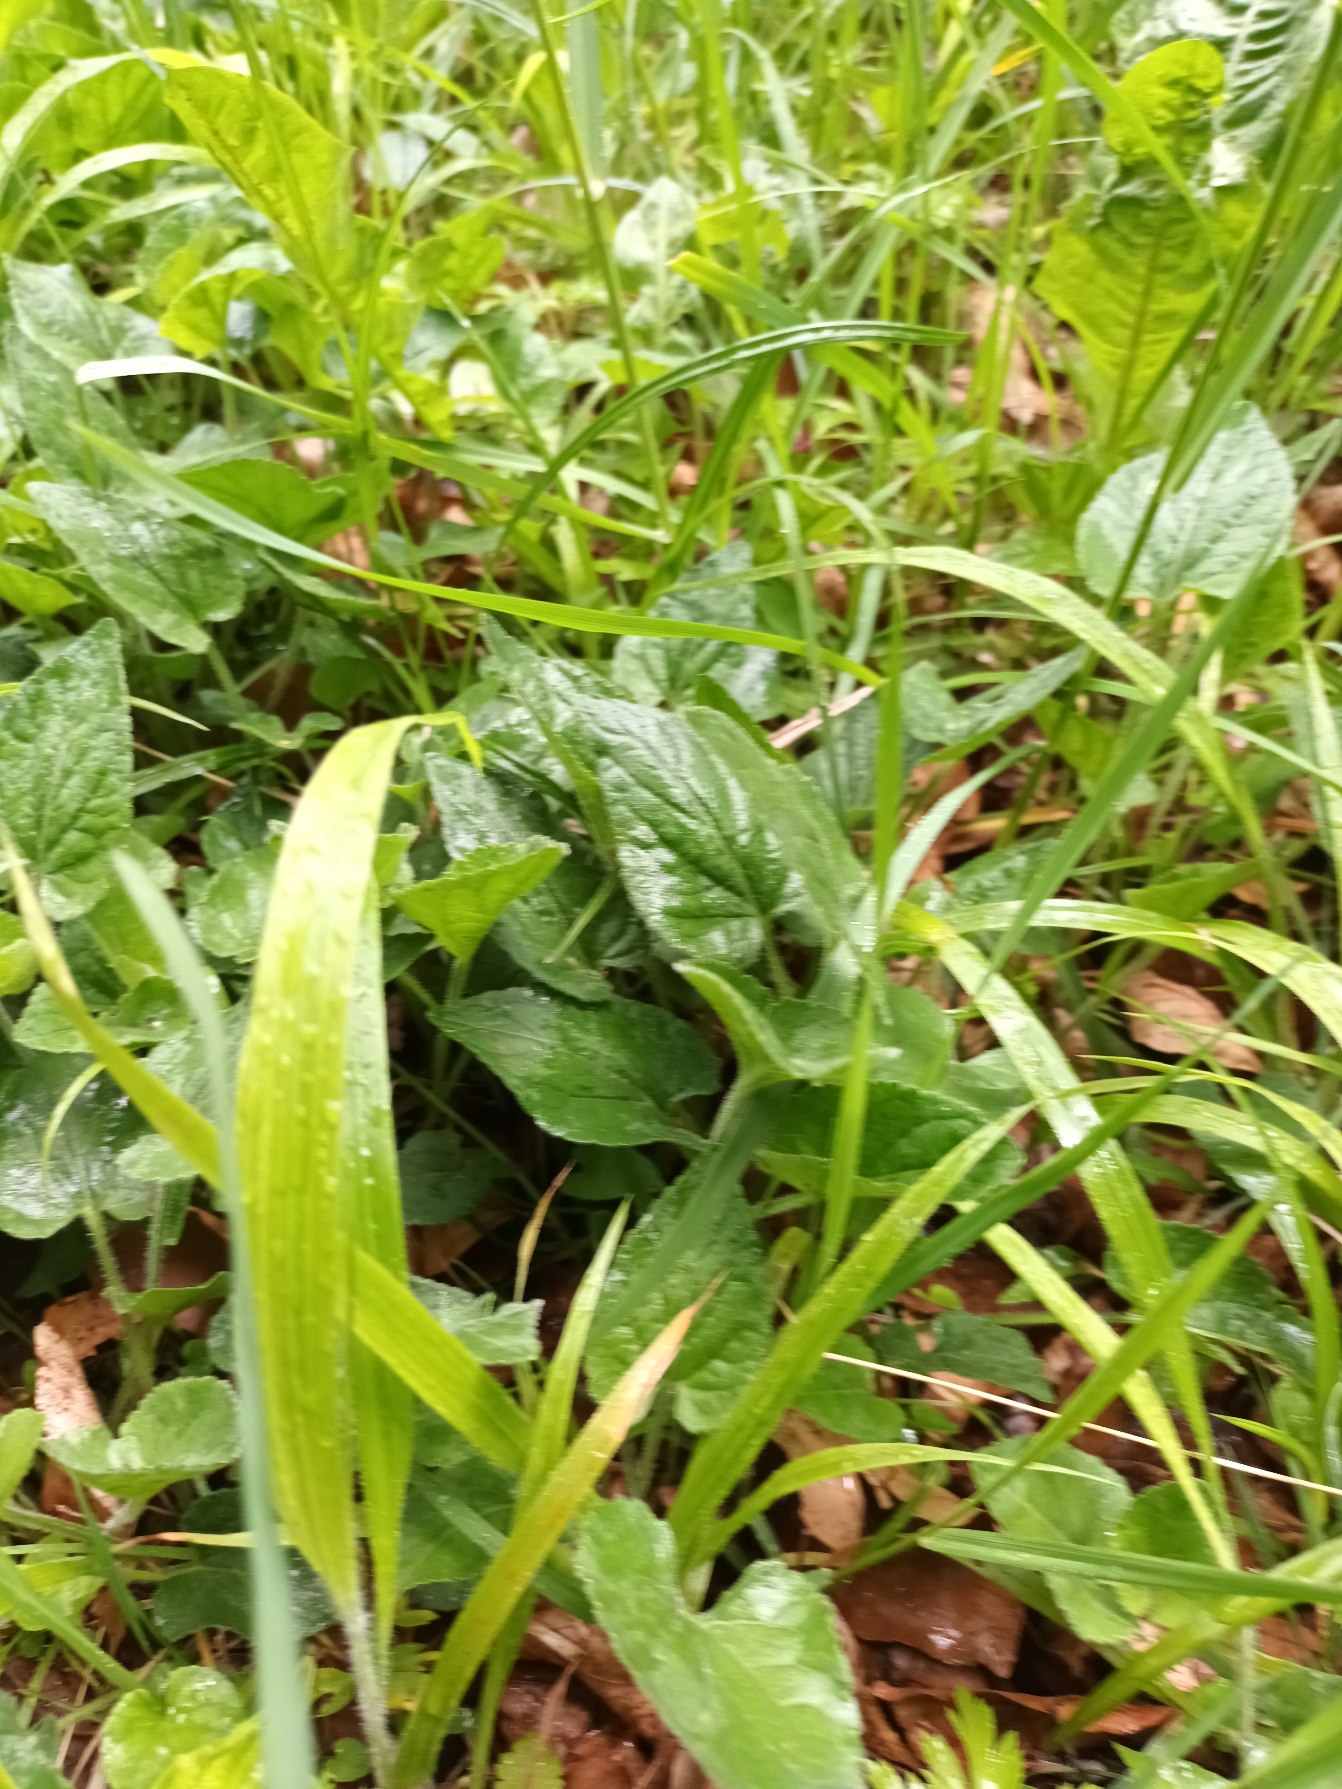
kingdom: Plantae
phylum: Tracheophyta
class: Magnoliopsida
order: Malpighiales
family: Violaceae
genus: Viola
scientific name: Viola hirta
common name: Håret viol
